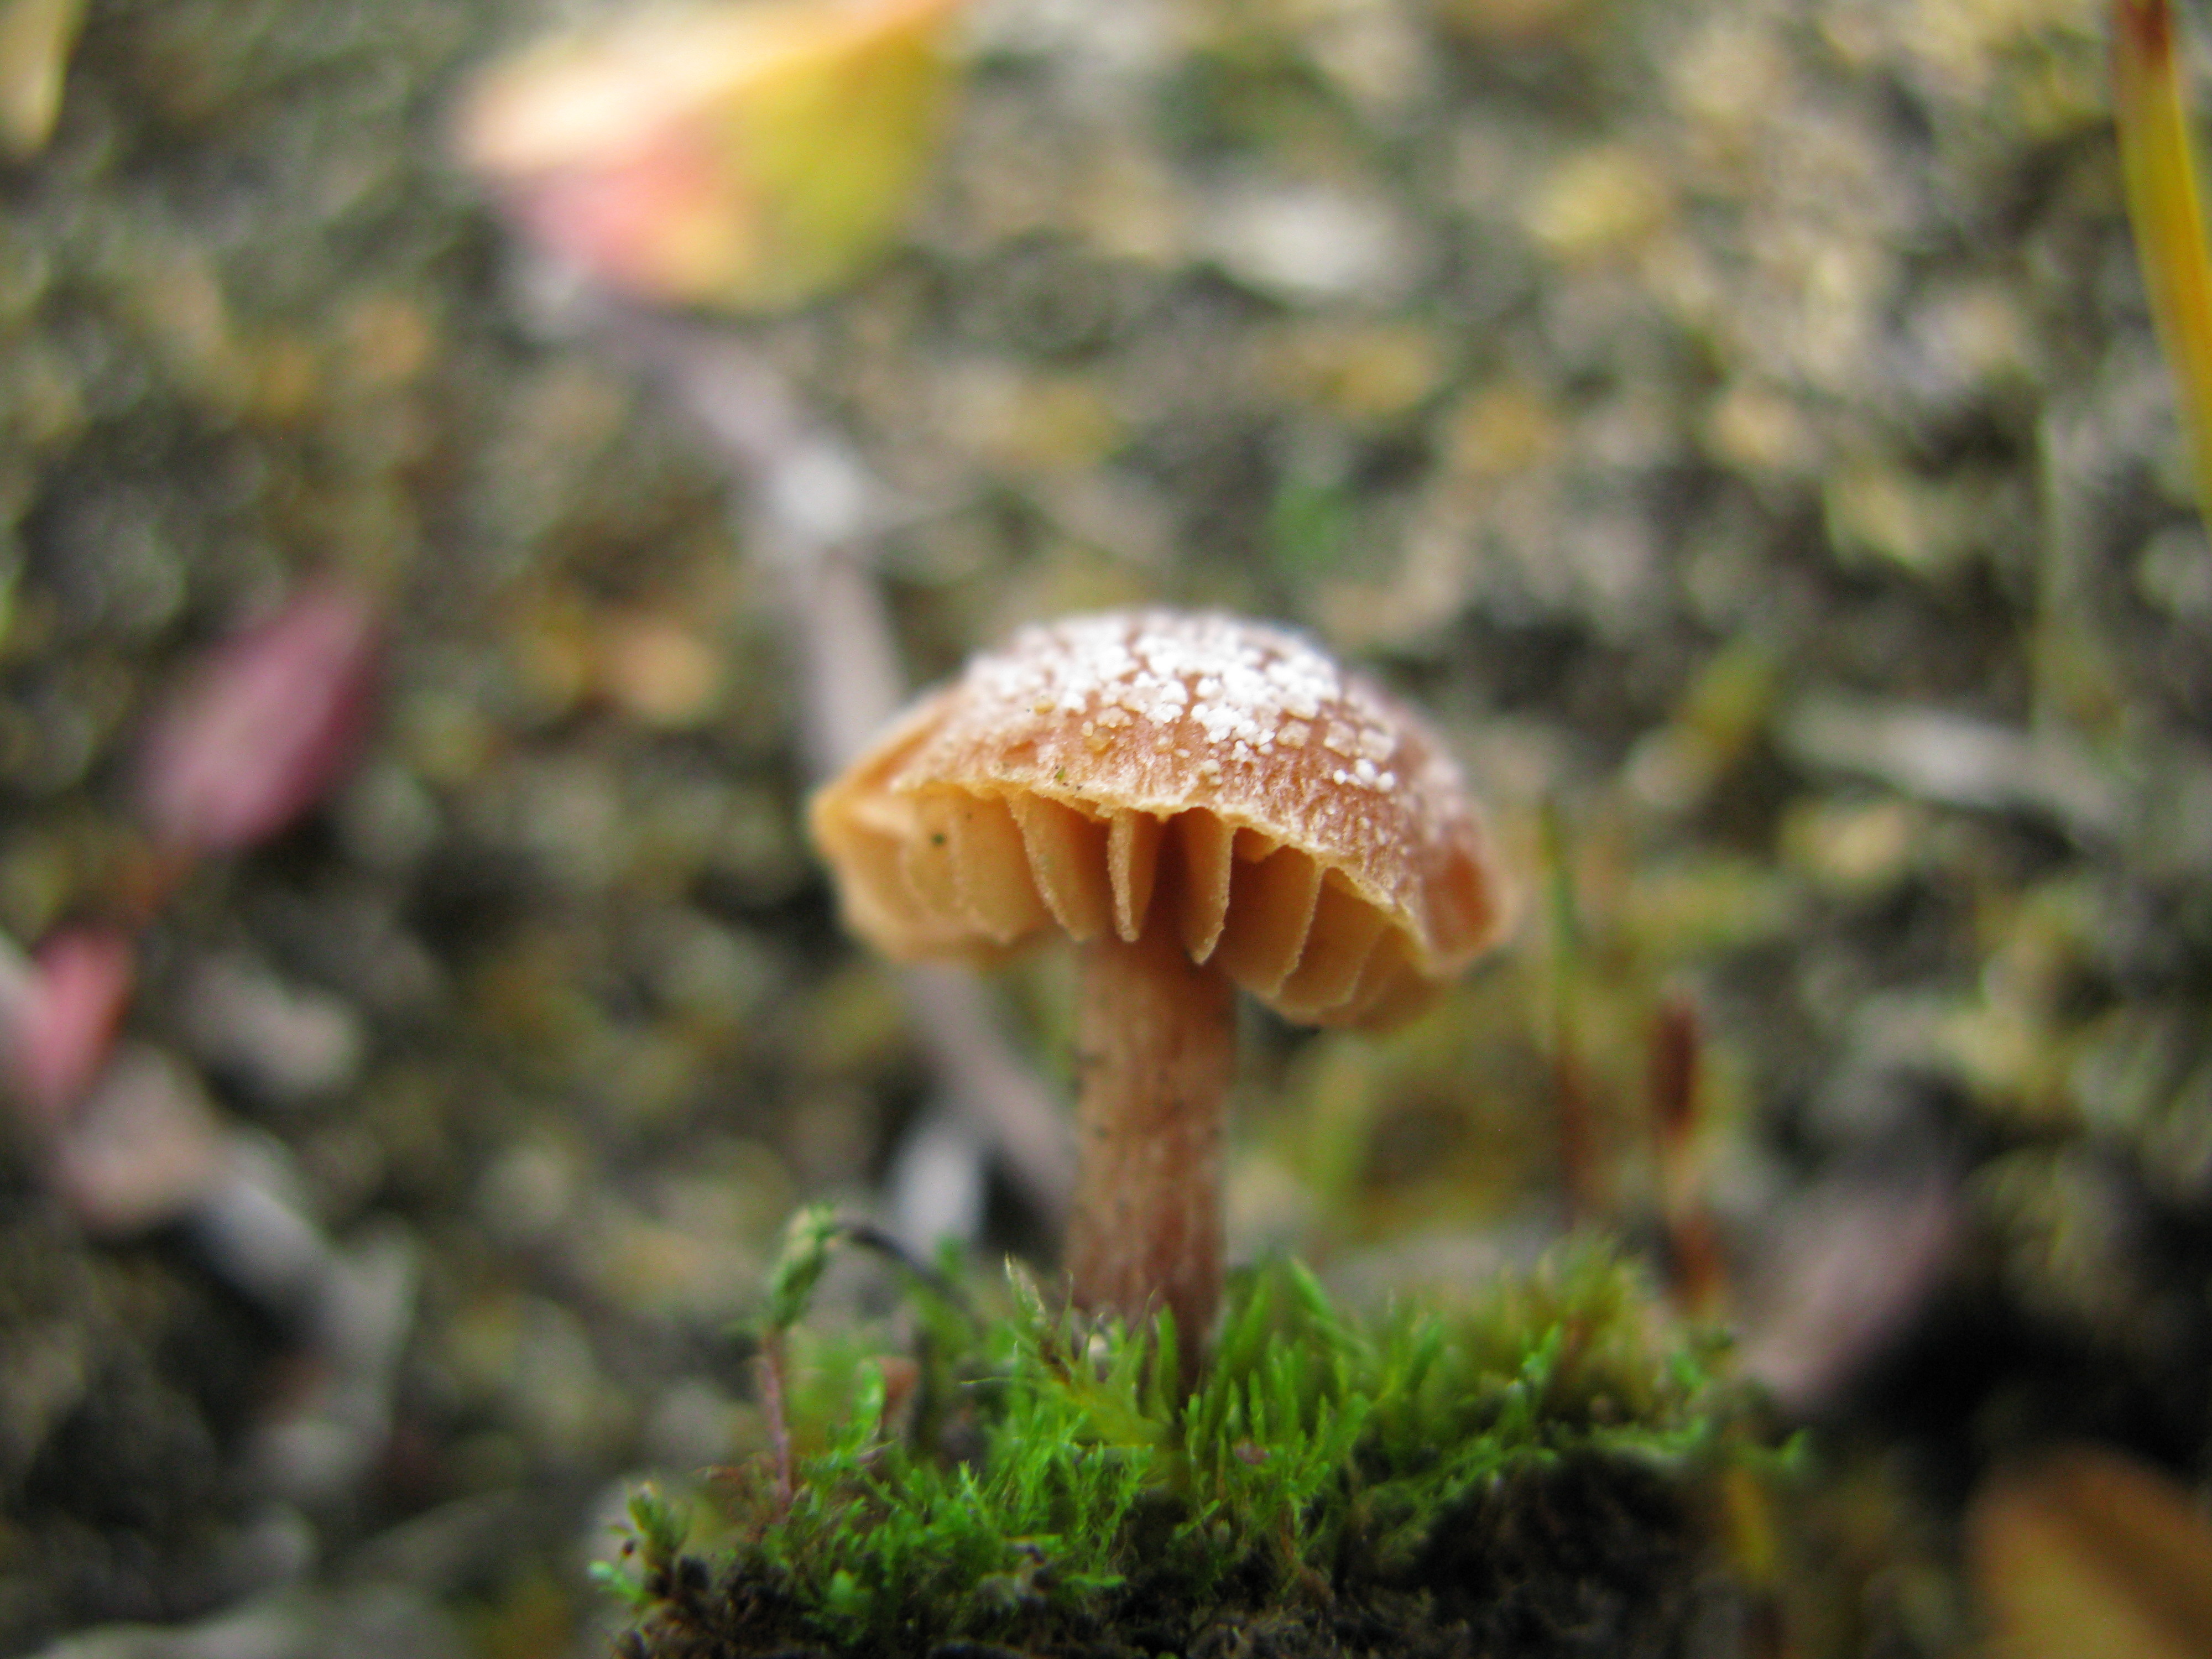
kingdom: Fungi
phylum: Basidiomycota
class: Agaricomycetes
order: Agaricales
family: Hymenogastraceae
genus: Hebeloma
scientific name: Hebeloma nigellum
